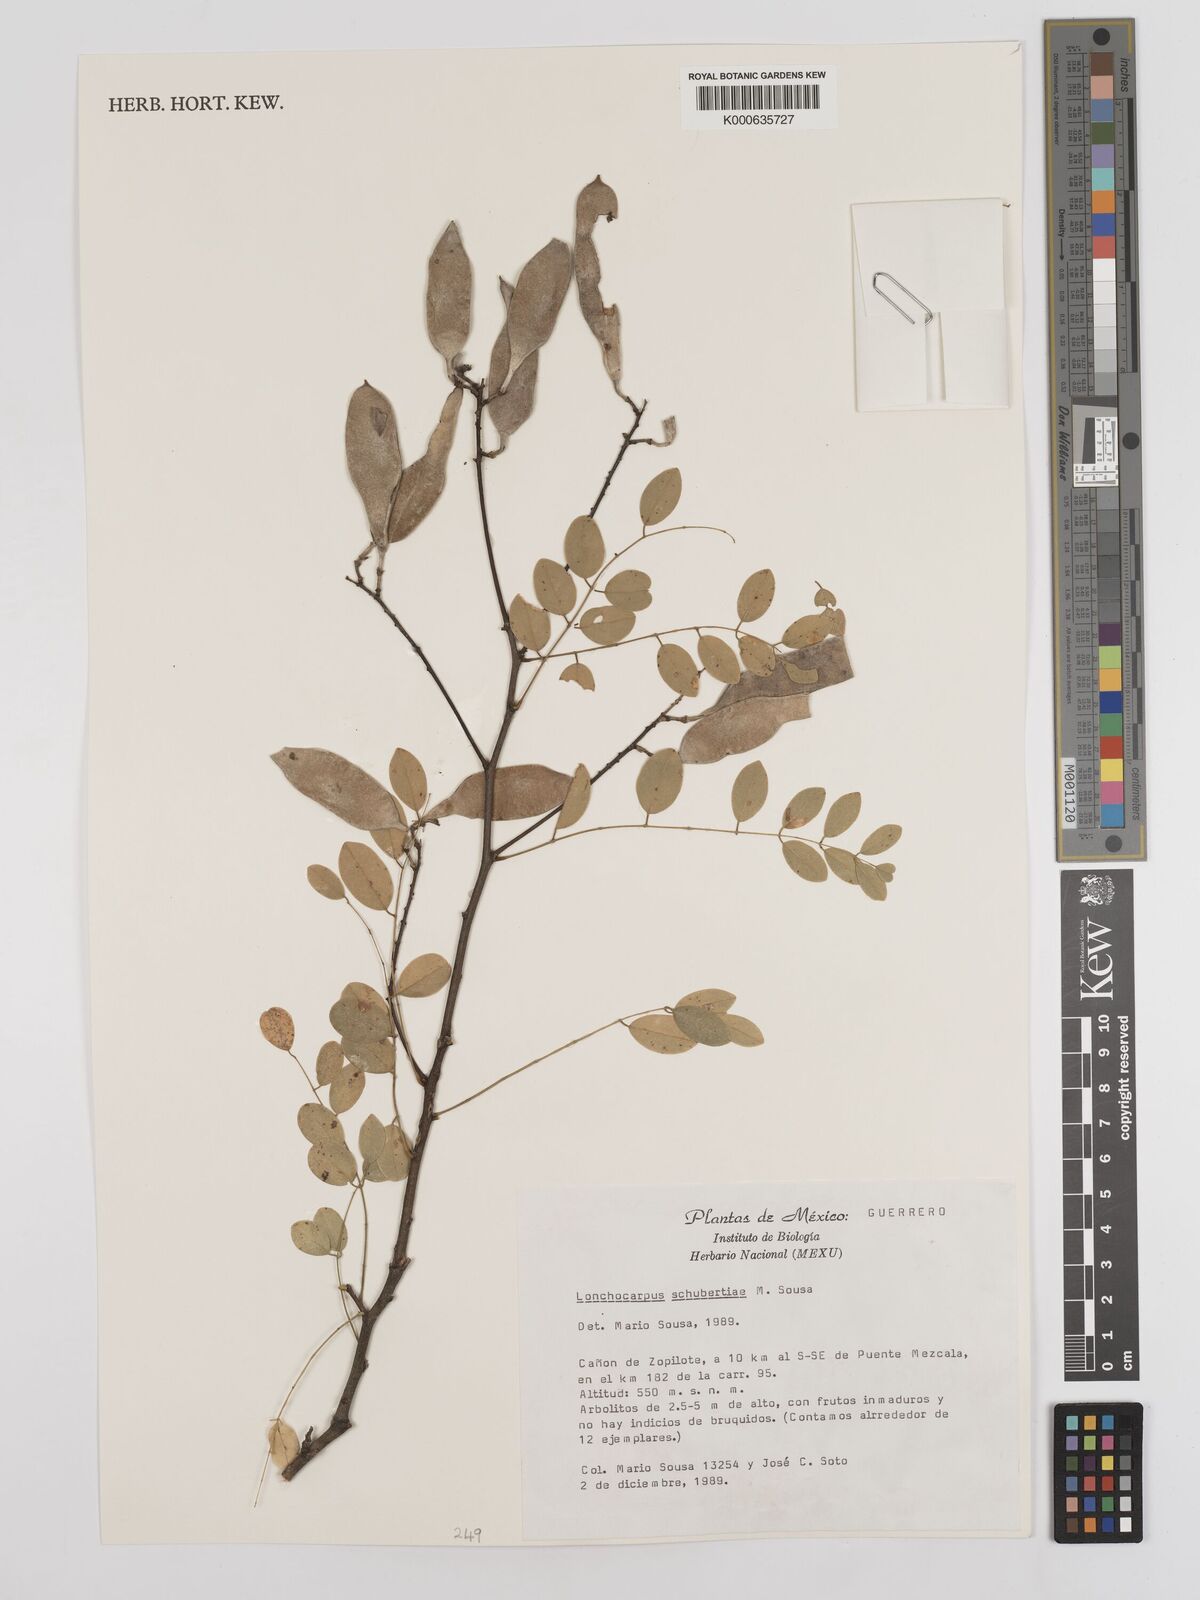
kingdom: Plantae
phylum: Tracheophyta
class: Magnoliopsida
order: Fabales
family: Fabaceae
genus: Lonchocarpus
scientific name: Lonchocarpus schubertiae
